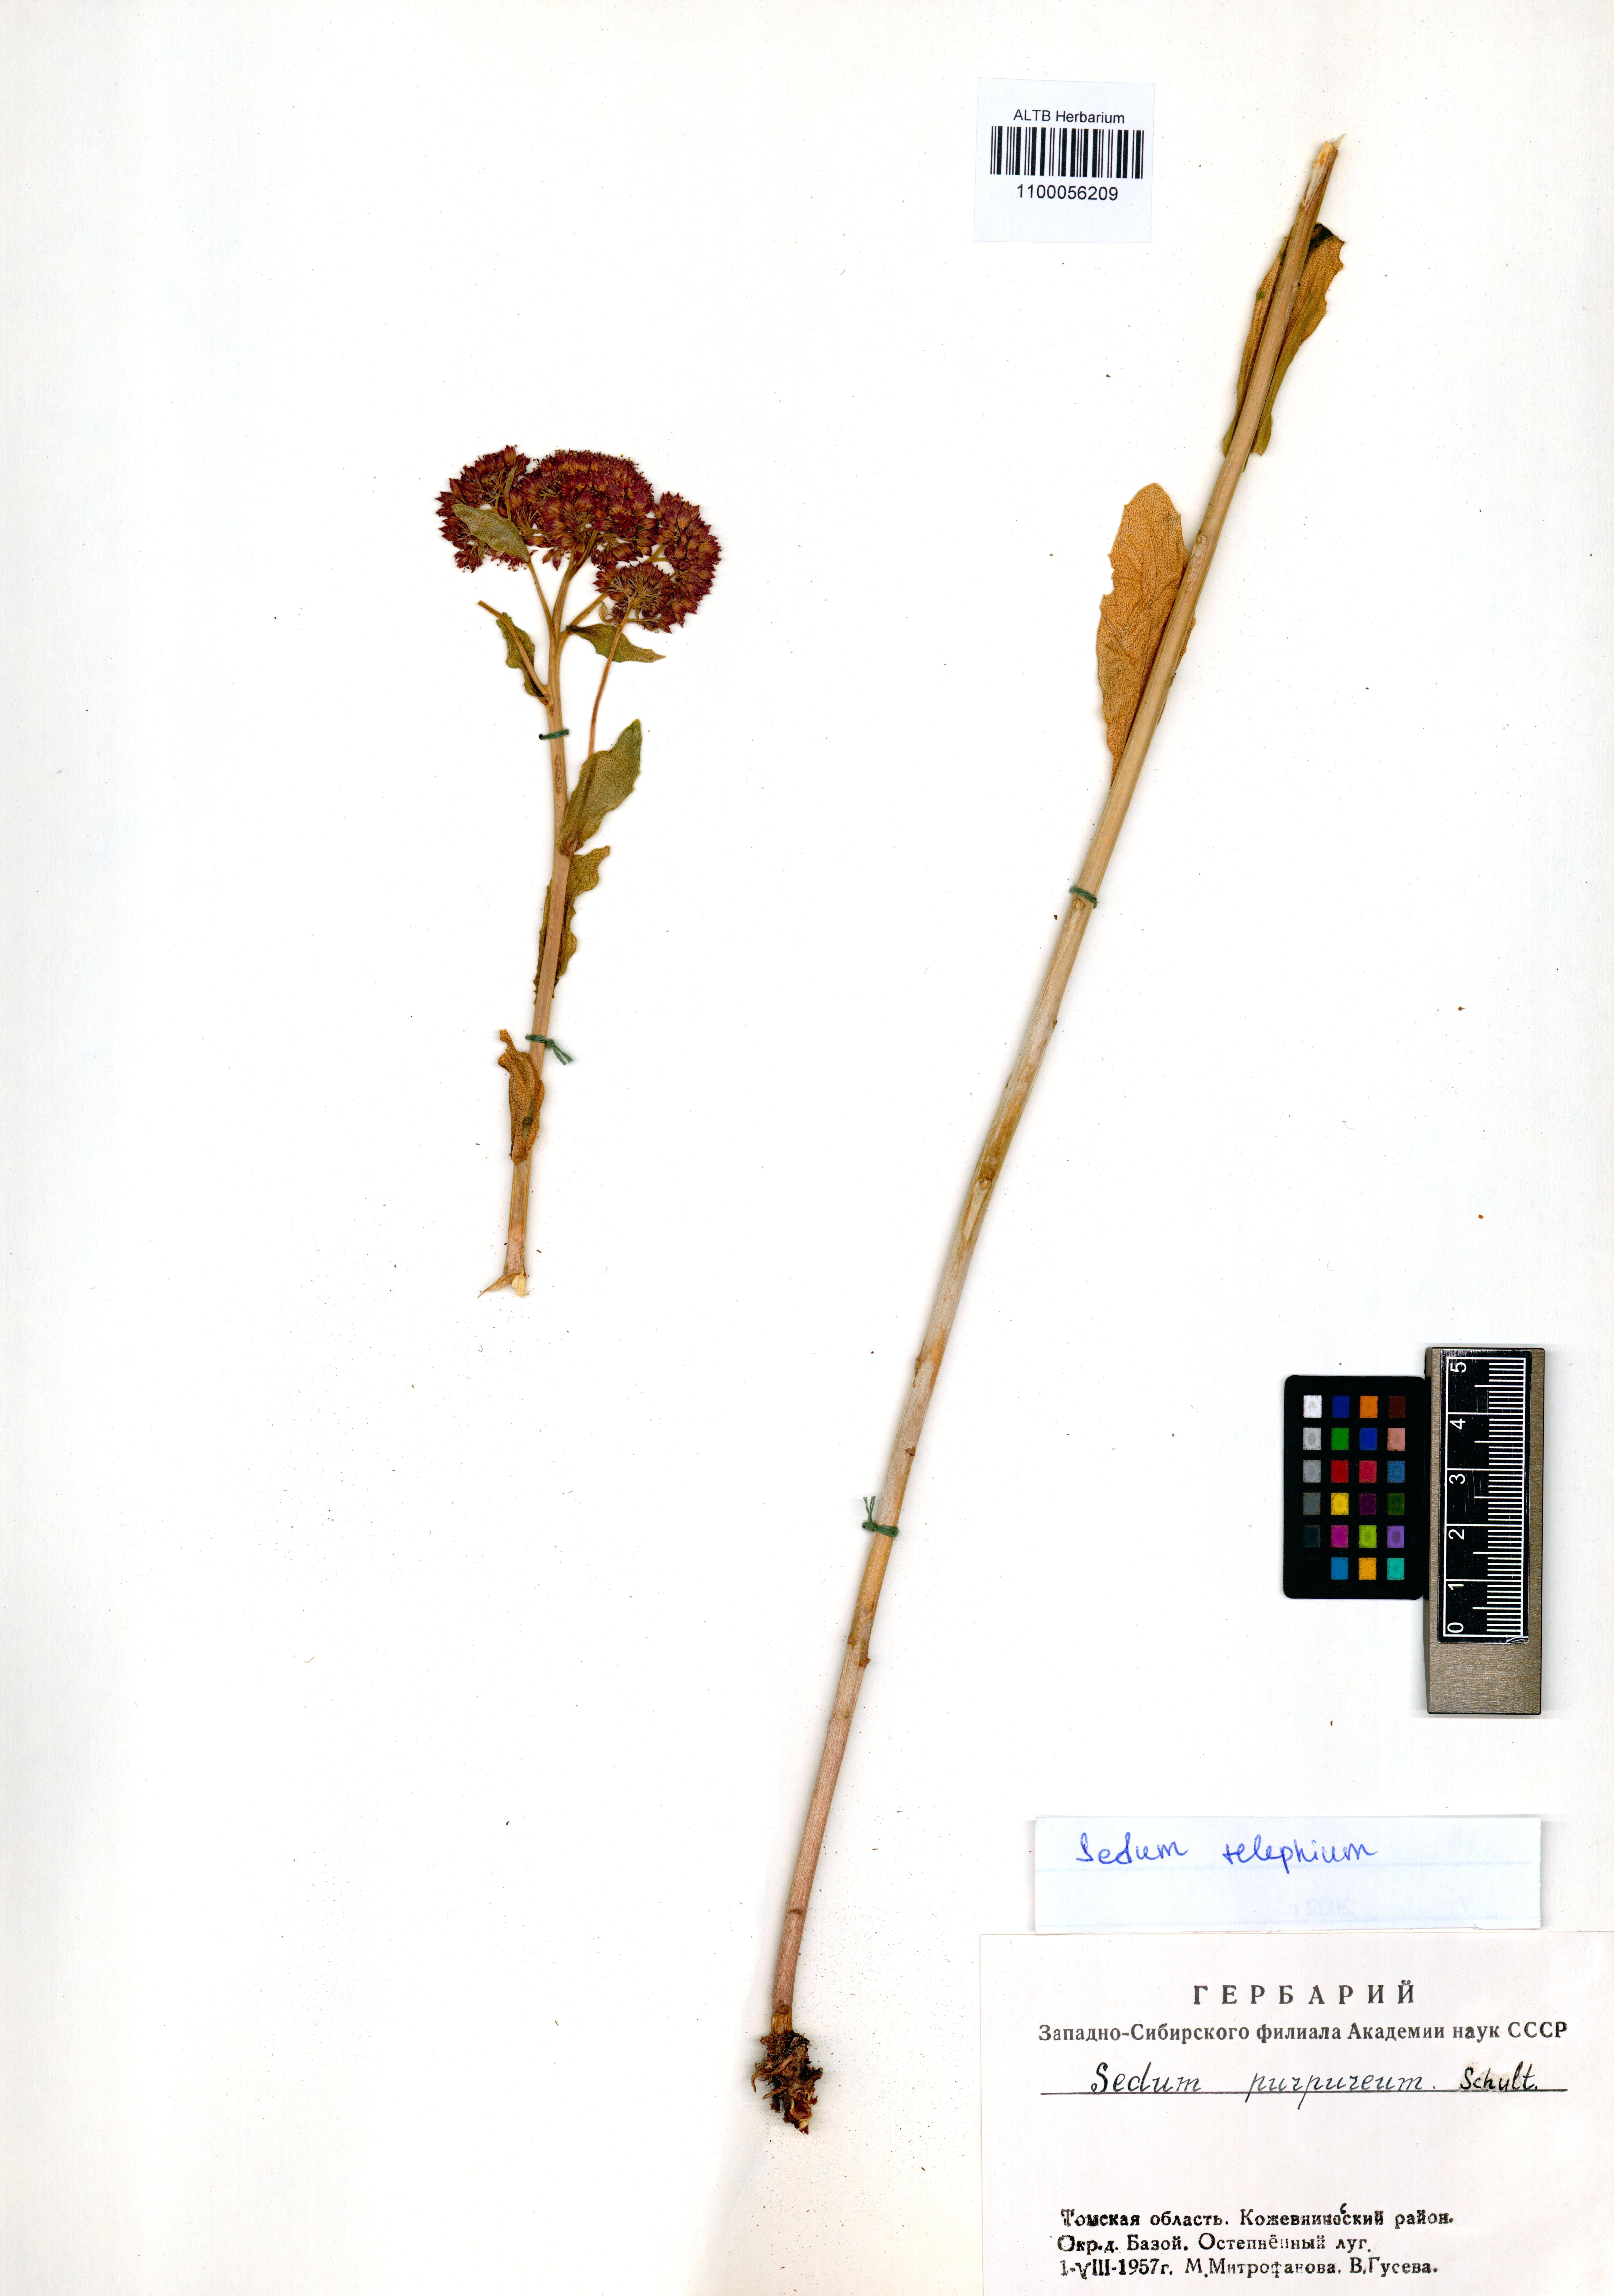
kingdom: Plantae
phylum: Tracheophyta
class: Magnoliopsida
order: Saxifragales
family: Crassulaceae
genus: Hylotelephium
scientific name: Hylotelephium telephium
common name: Live-forever
